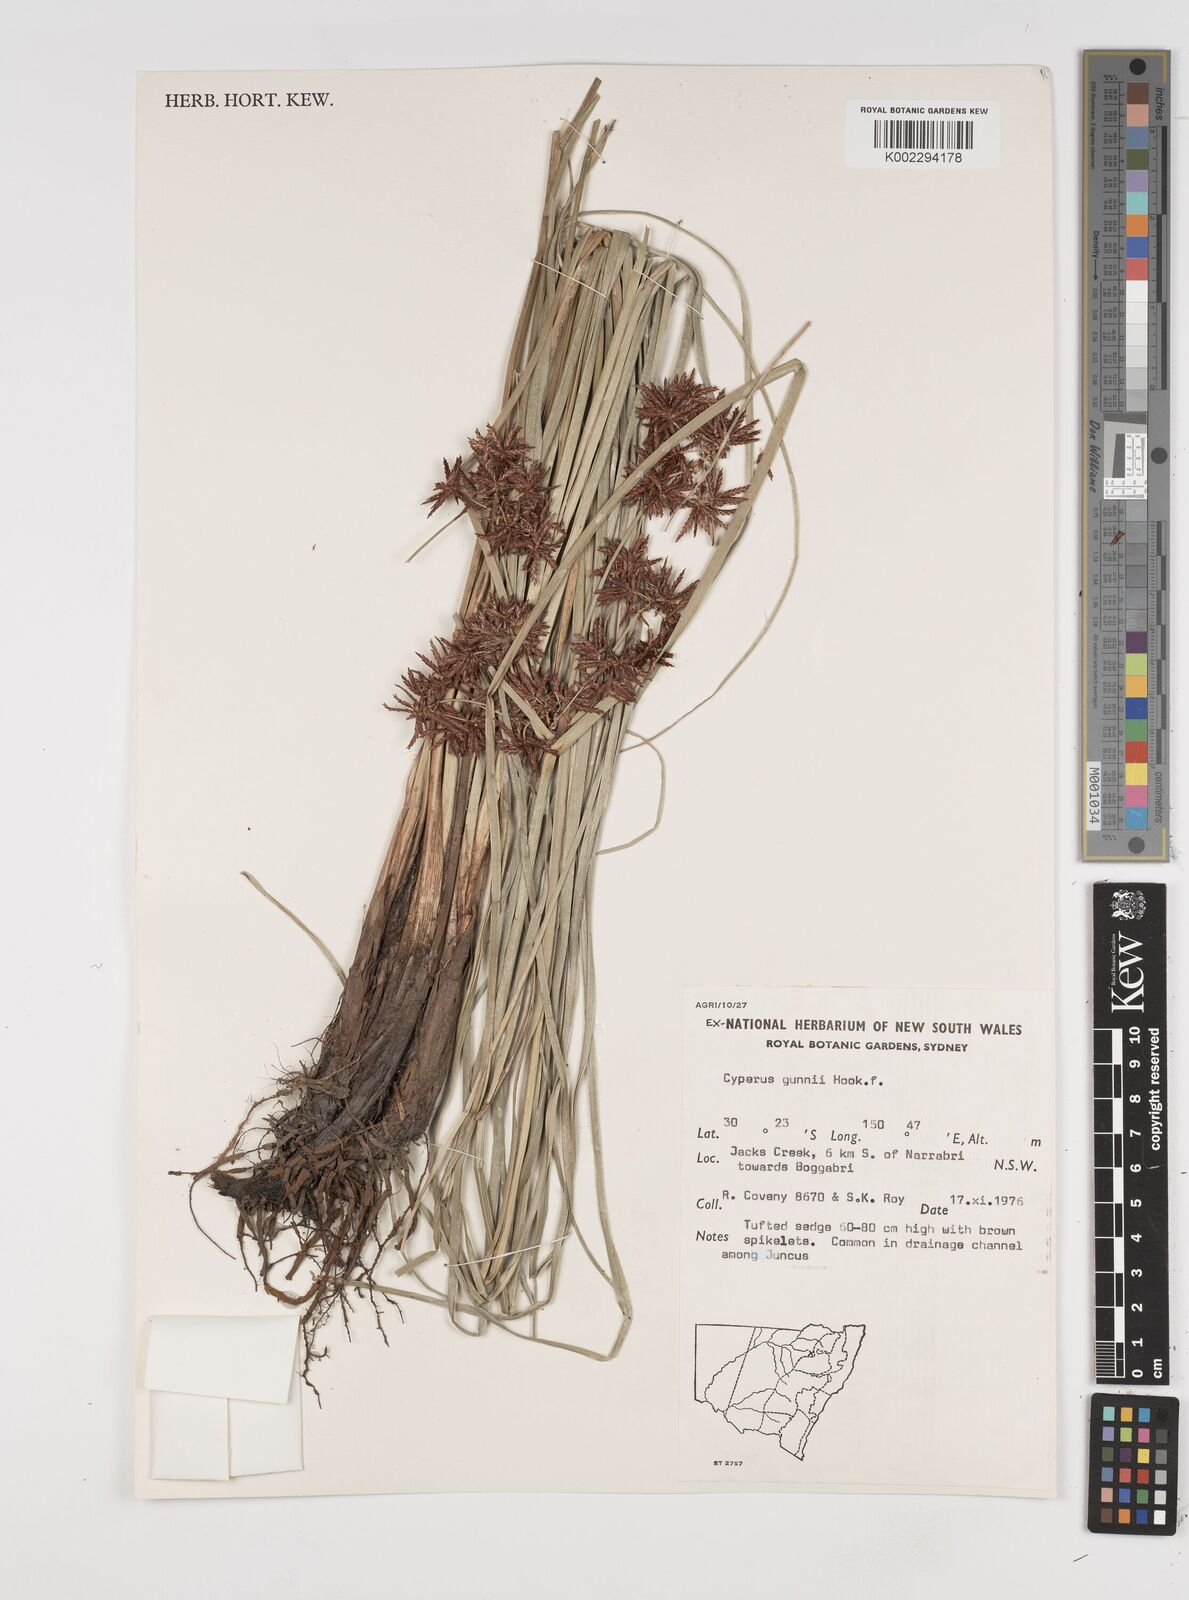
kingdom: Plantae
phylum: Tracheophyta
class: Liliopsida
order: Poales
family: Cyperaceae
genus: Cyperus
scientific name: Cyperus gunnii
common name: Flecked flat-sedge
